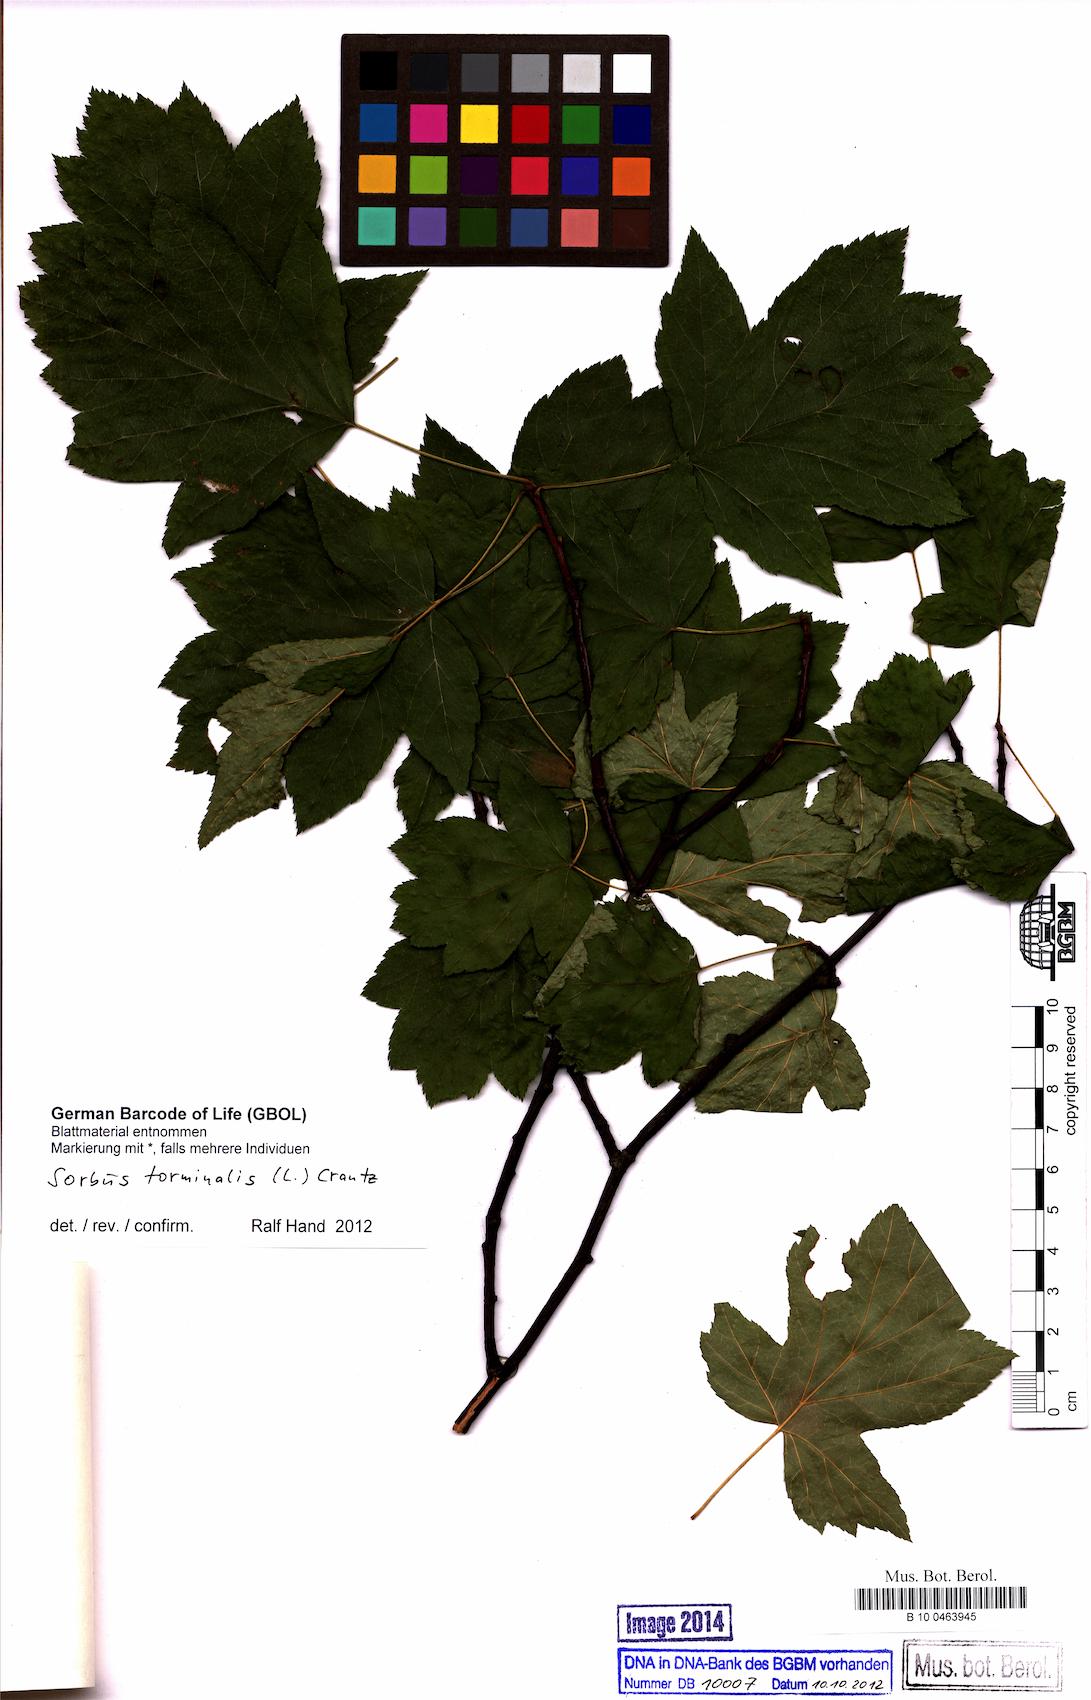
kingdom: Plantae
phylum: Tracheophyta
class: Magnoliopsida
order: Rosales
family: Rosaceae
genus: Torminalis
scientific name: Torminalis glaberrima
